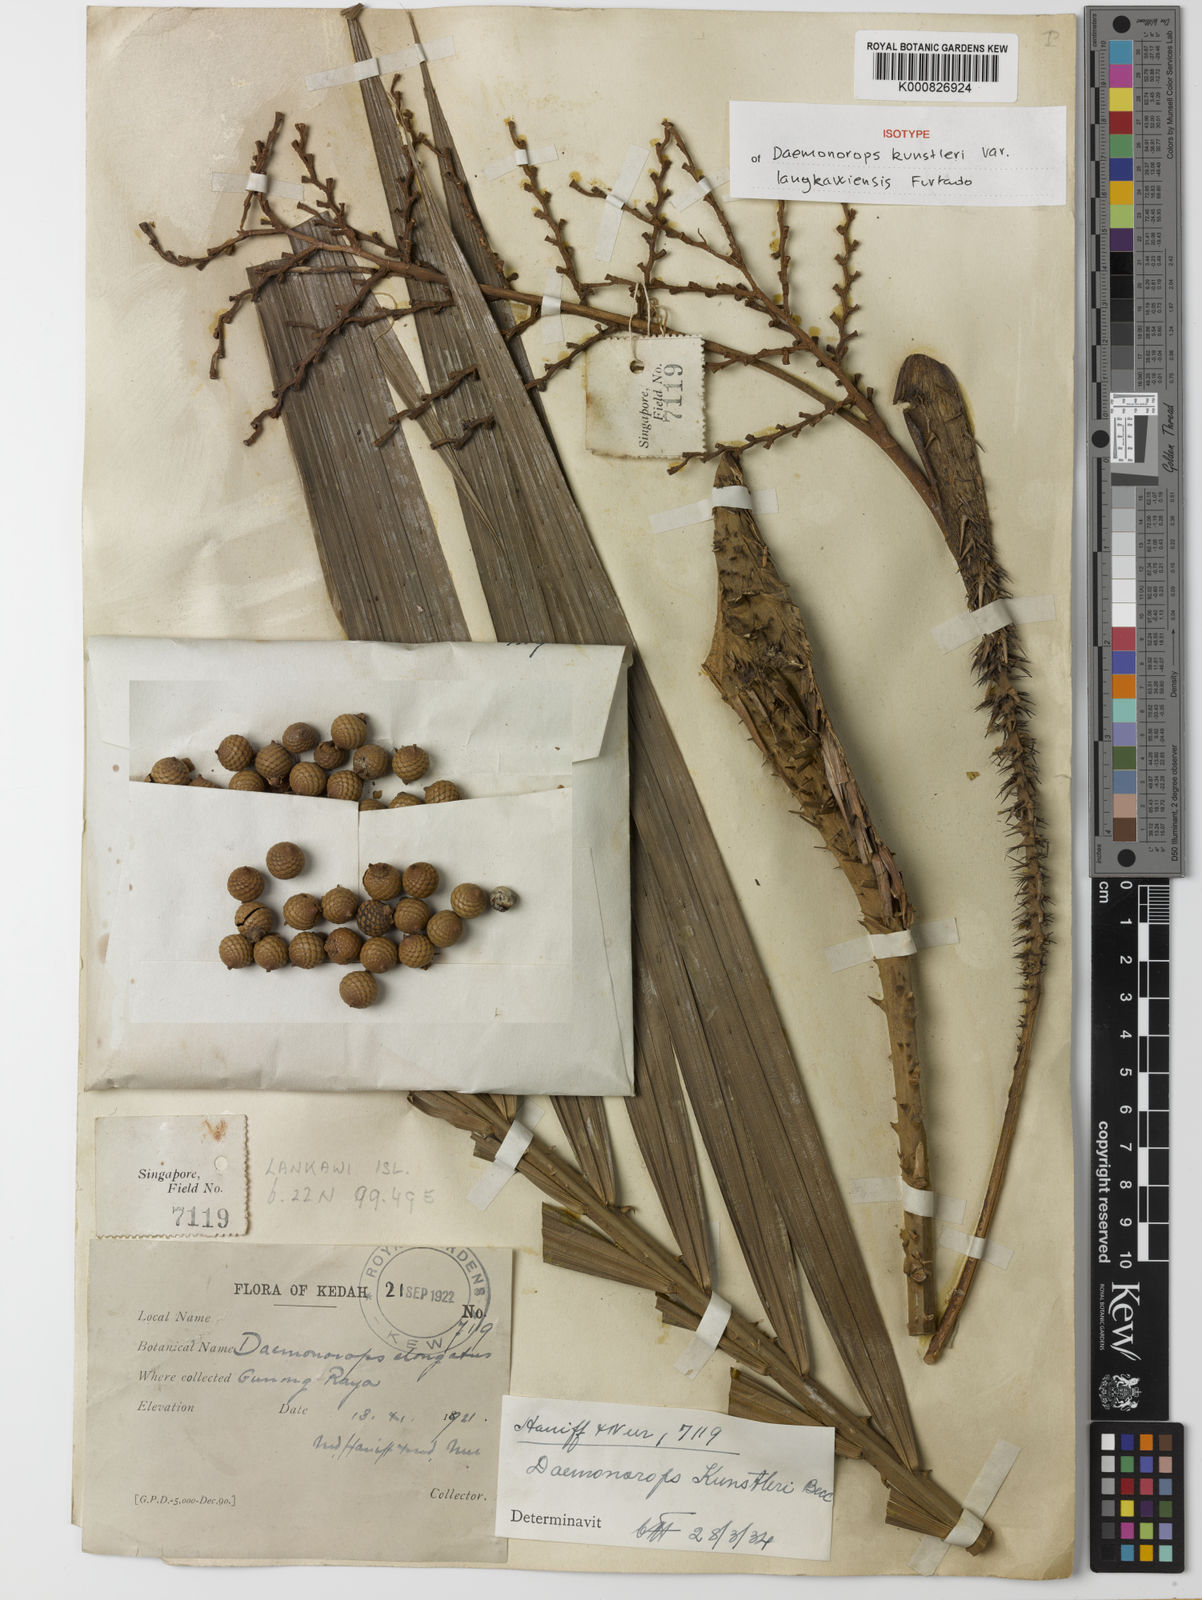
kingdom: Plantae
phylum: Tracheophyta
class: Liliopsida
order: Arecales
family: Arecaceae
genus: Calamus
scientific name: Calamus kunstleri
